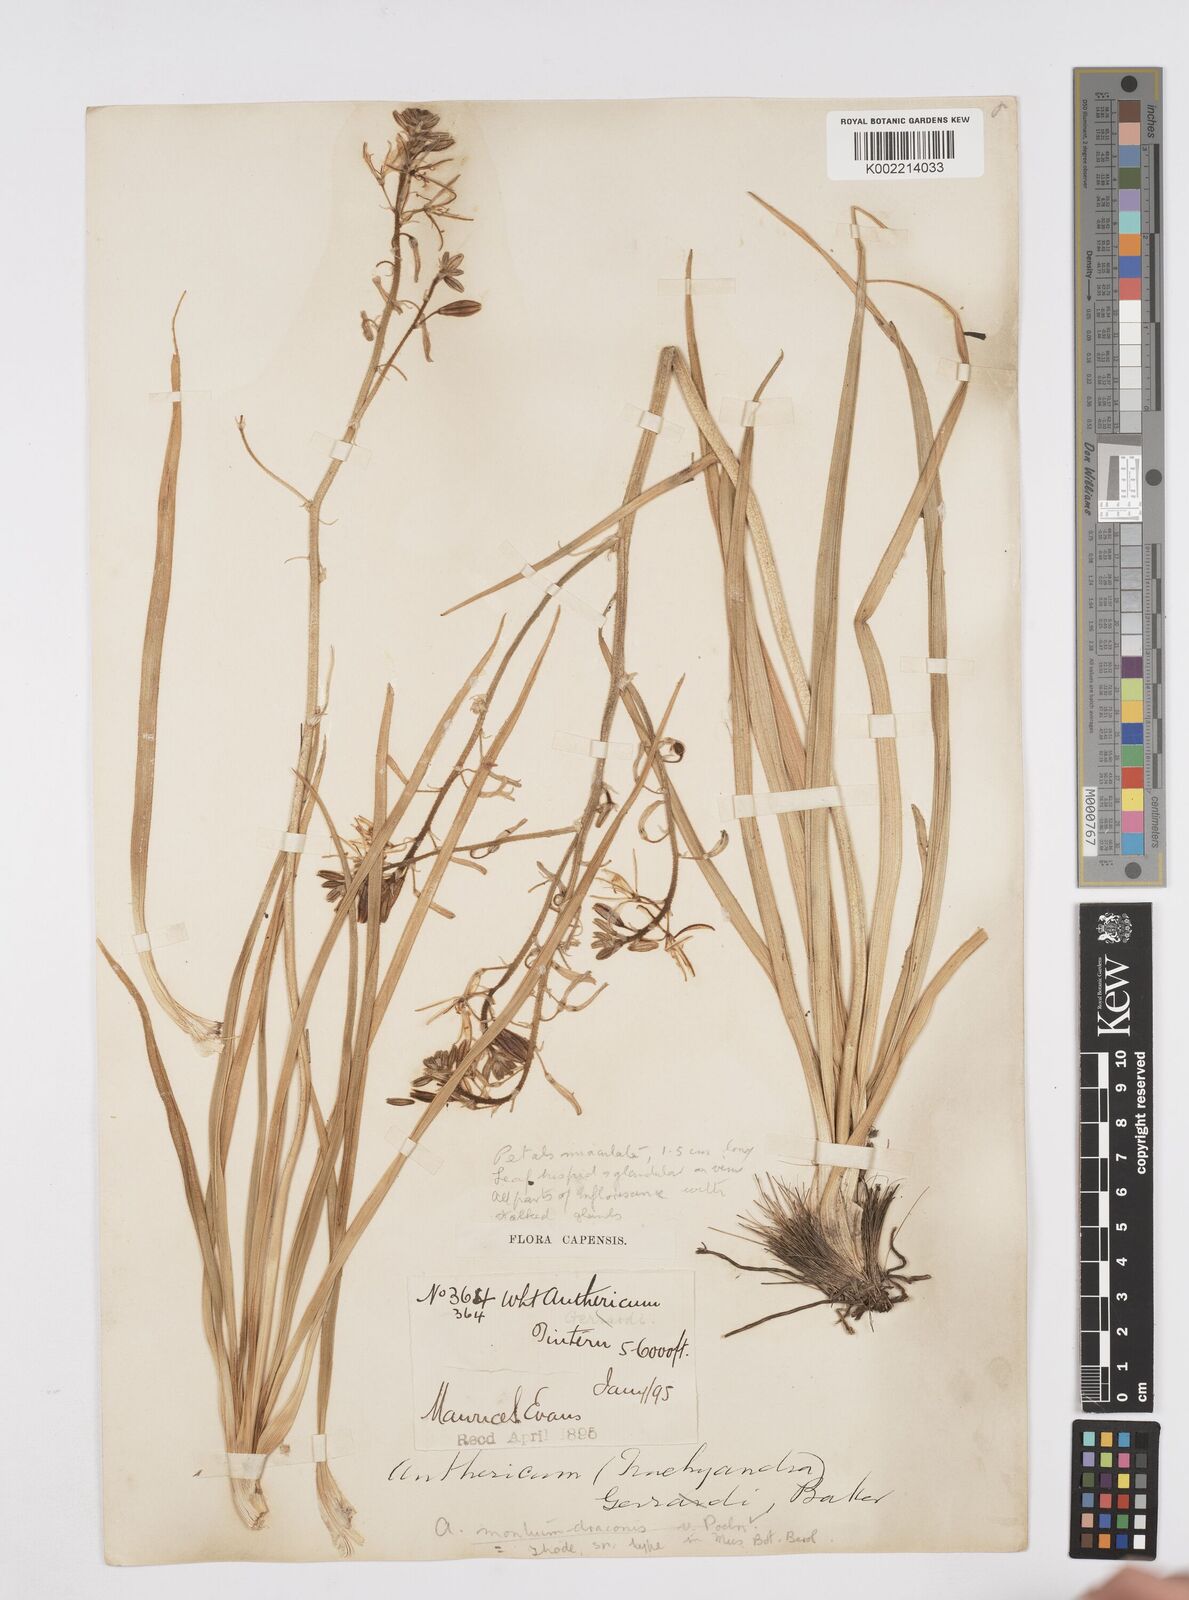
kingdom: Plantae
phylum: Tracheophyta
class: Liliopsida
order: Asparagales
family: Asphodelaceae
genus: Trachyandra
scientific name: Trachyandra gerrardii
